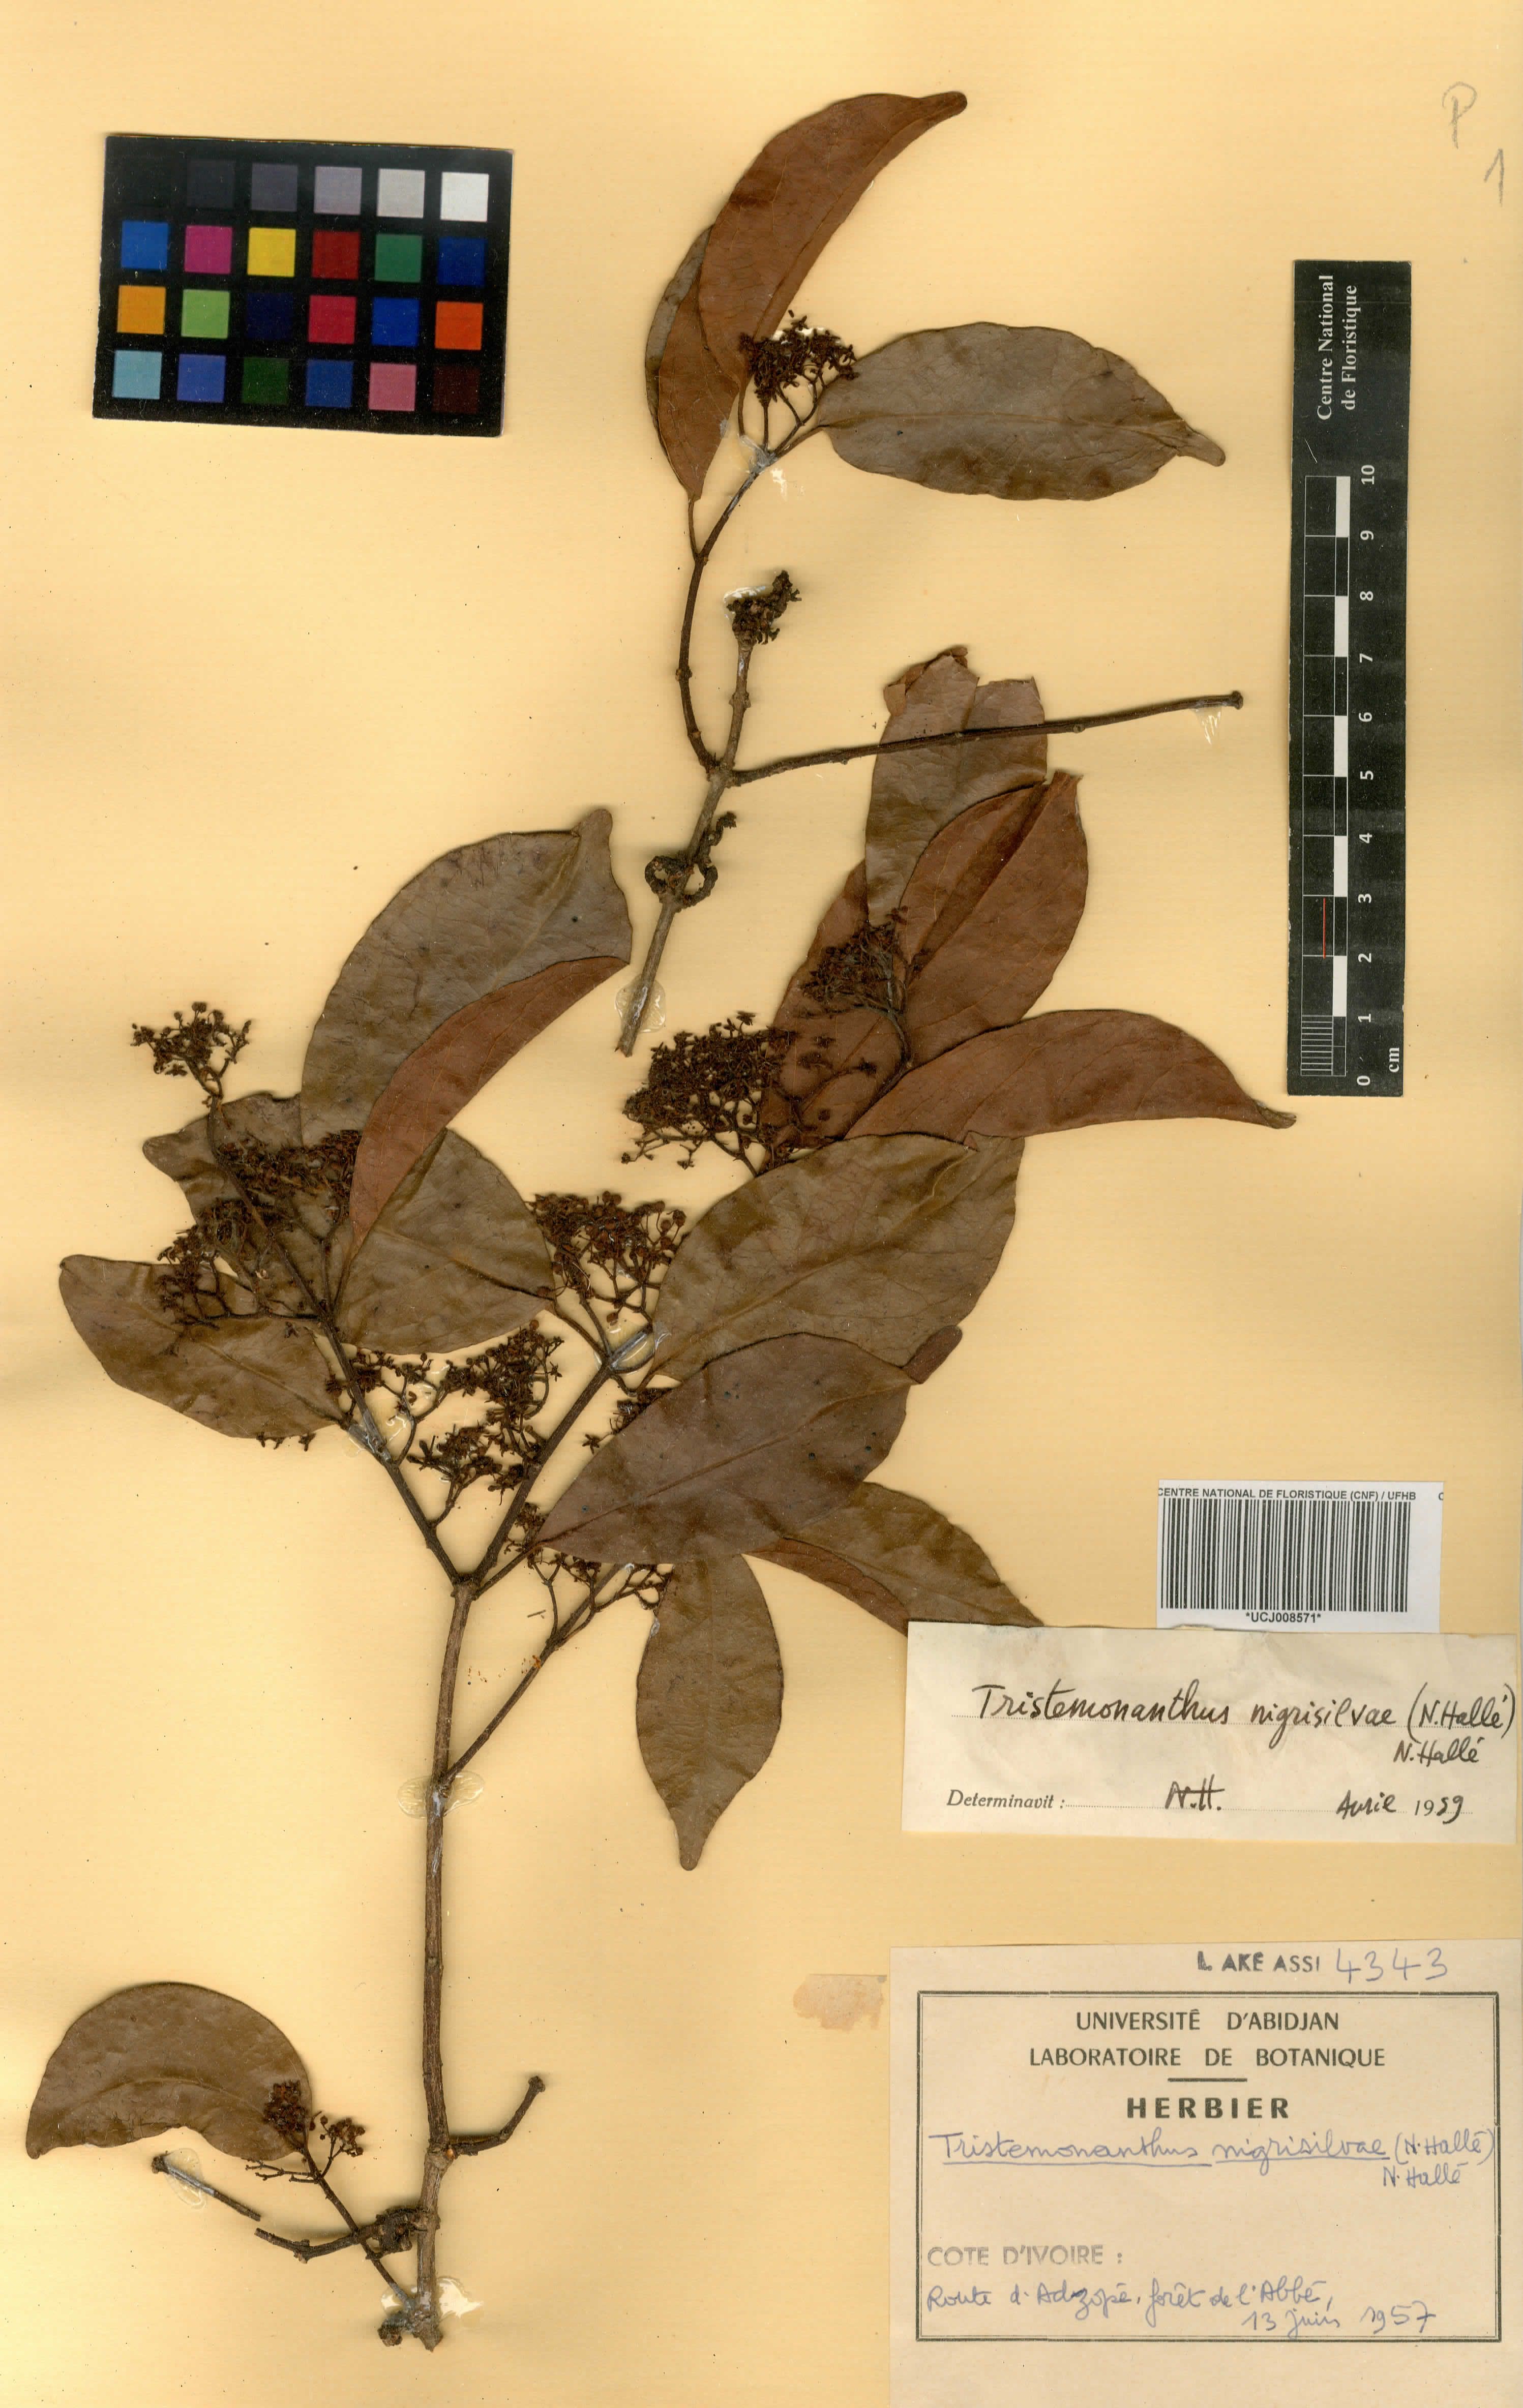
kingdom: Plantae
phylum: Tracheophyta
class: Magnoliopsida
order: Celastrales
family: Celastraceae
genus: Tristemonanthus
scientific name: Tristemonanthus nigrisilvae
